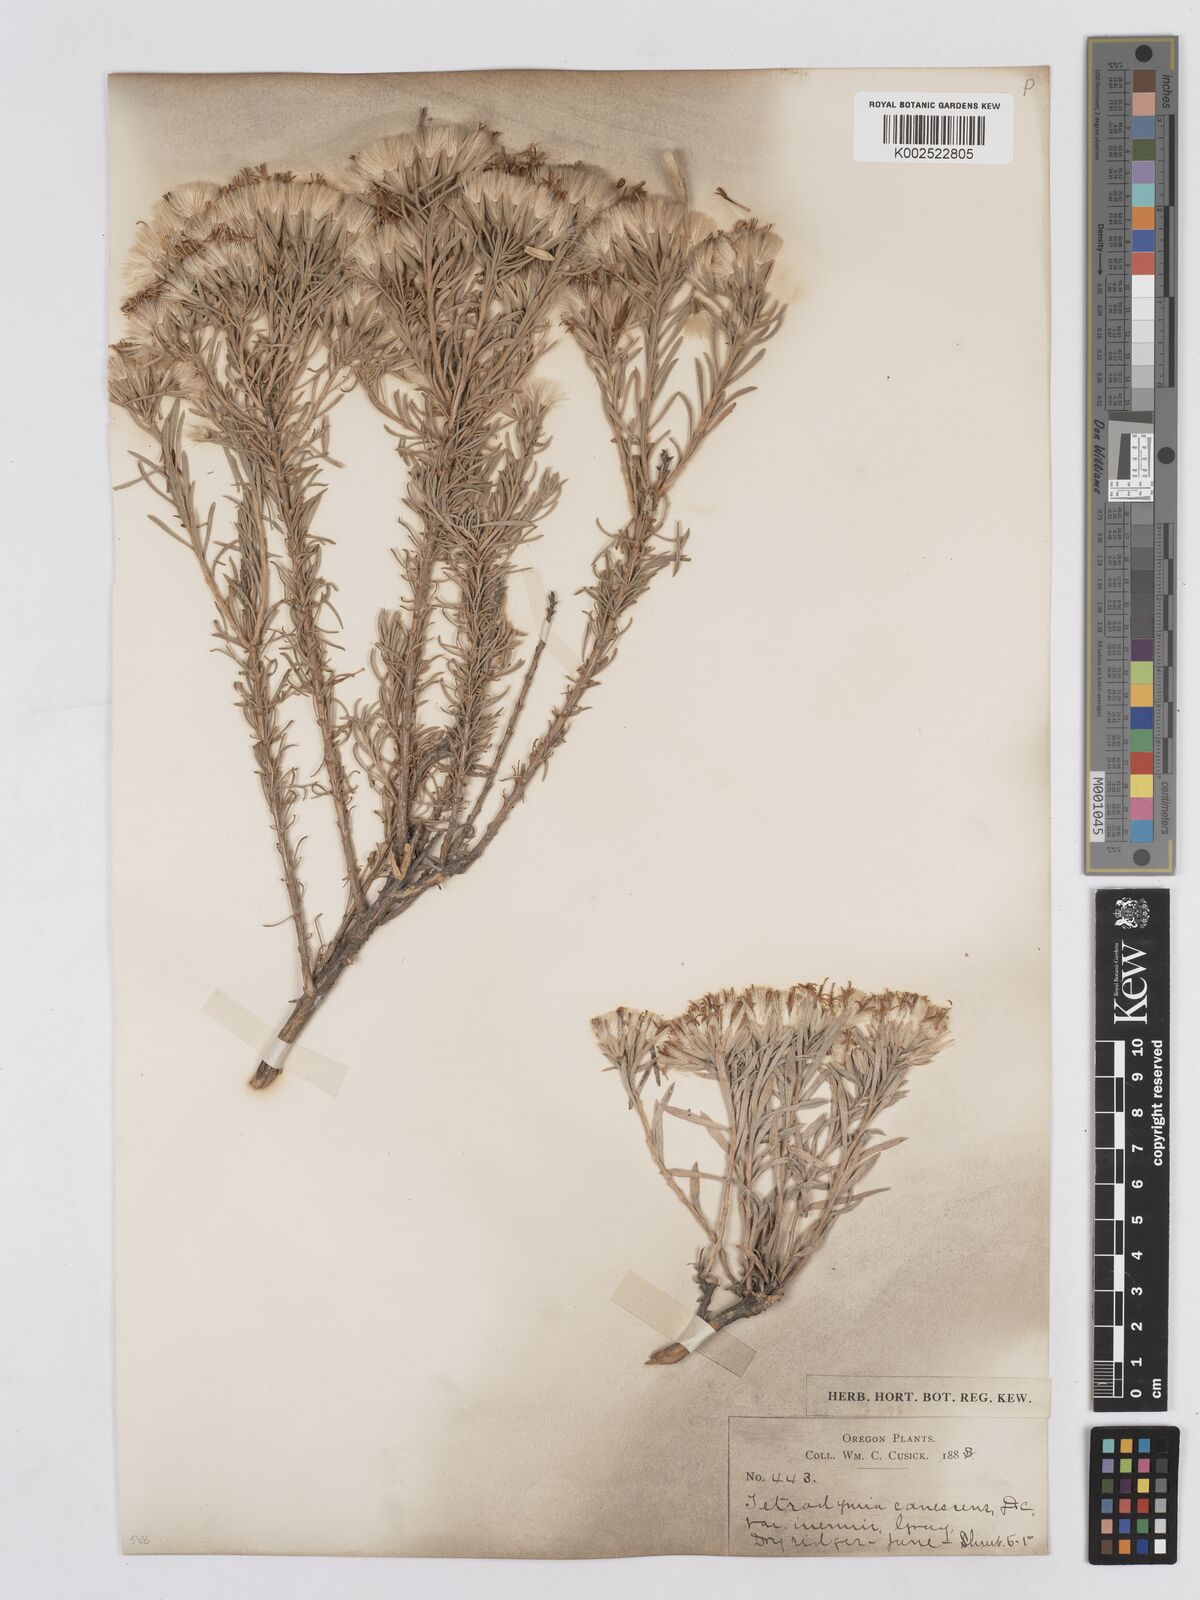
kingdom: Plantae
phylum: Tracheophyta
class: Magnoliopsida
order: Asterales
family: Asteraceae
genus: Tetradymia
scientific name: Tetradymia canescens
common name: Spineless horsebrush
